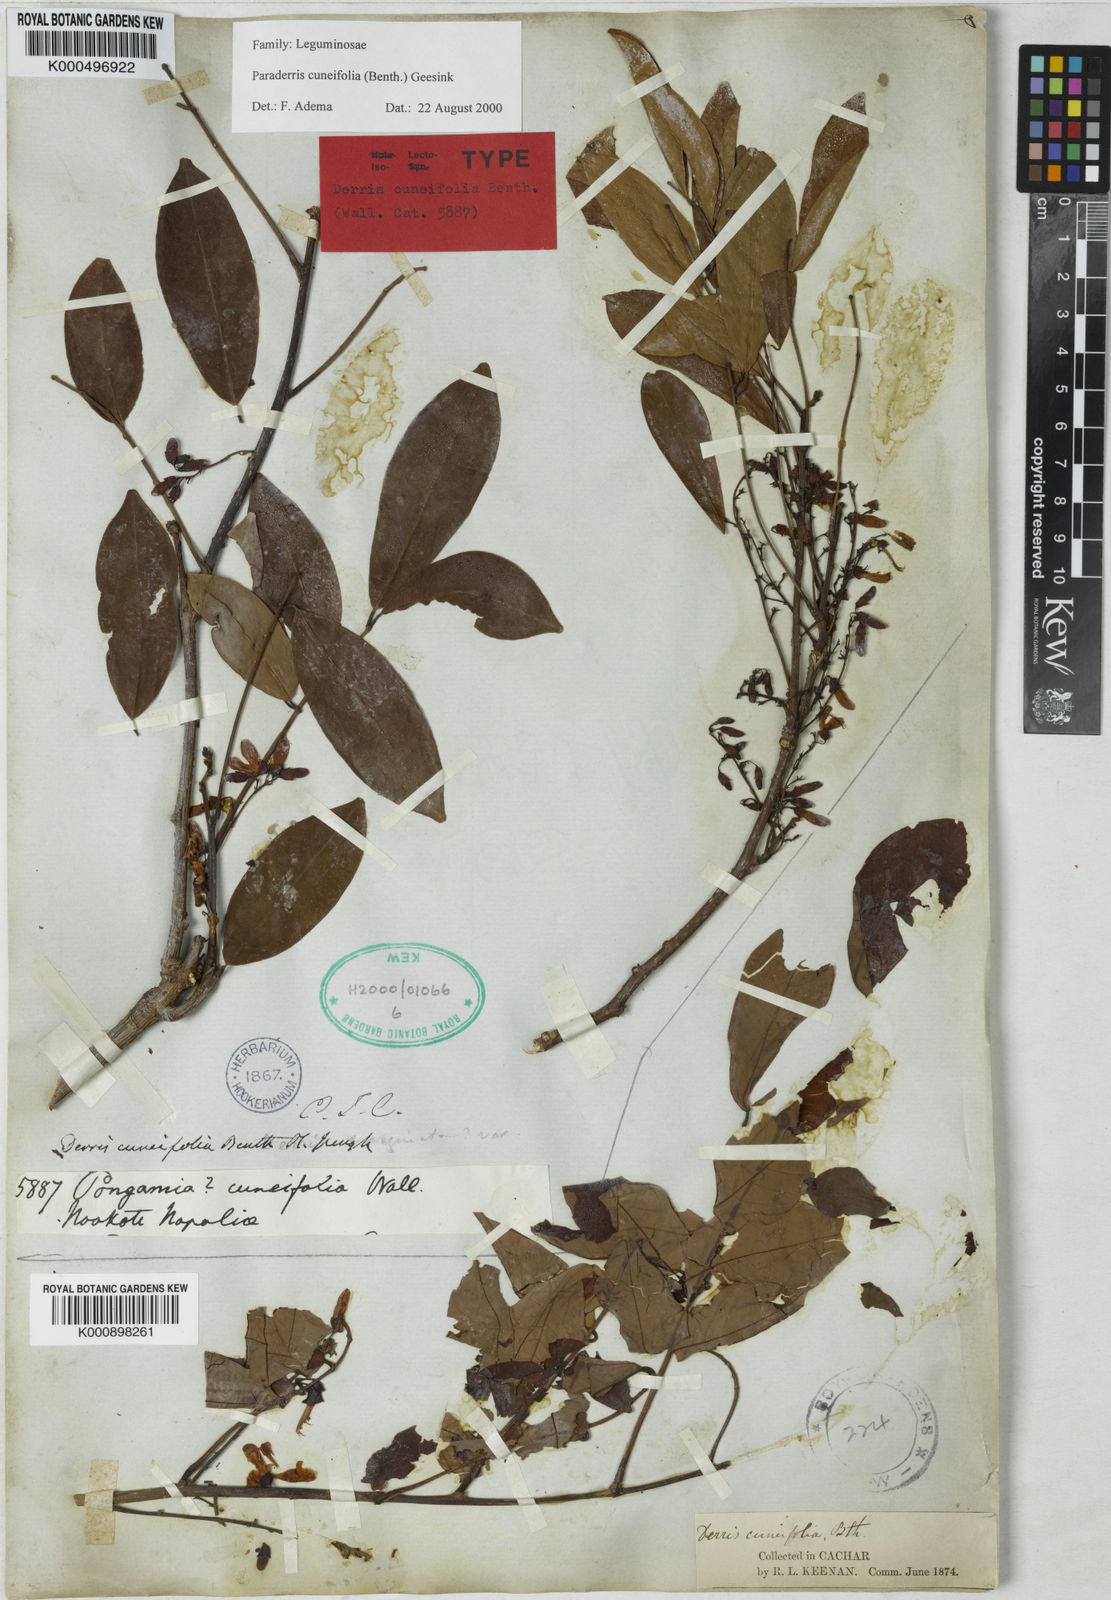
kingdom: Plantae
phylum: Tracheophyta
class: Magnoliopsida
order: Fabales
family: Fabaceae
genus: Derris
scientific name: Derris cuneifolia
